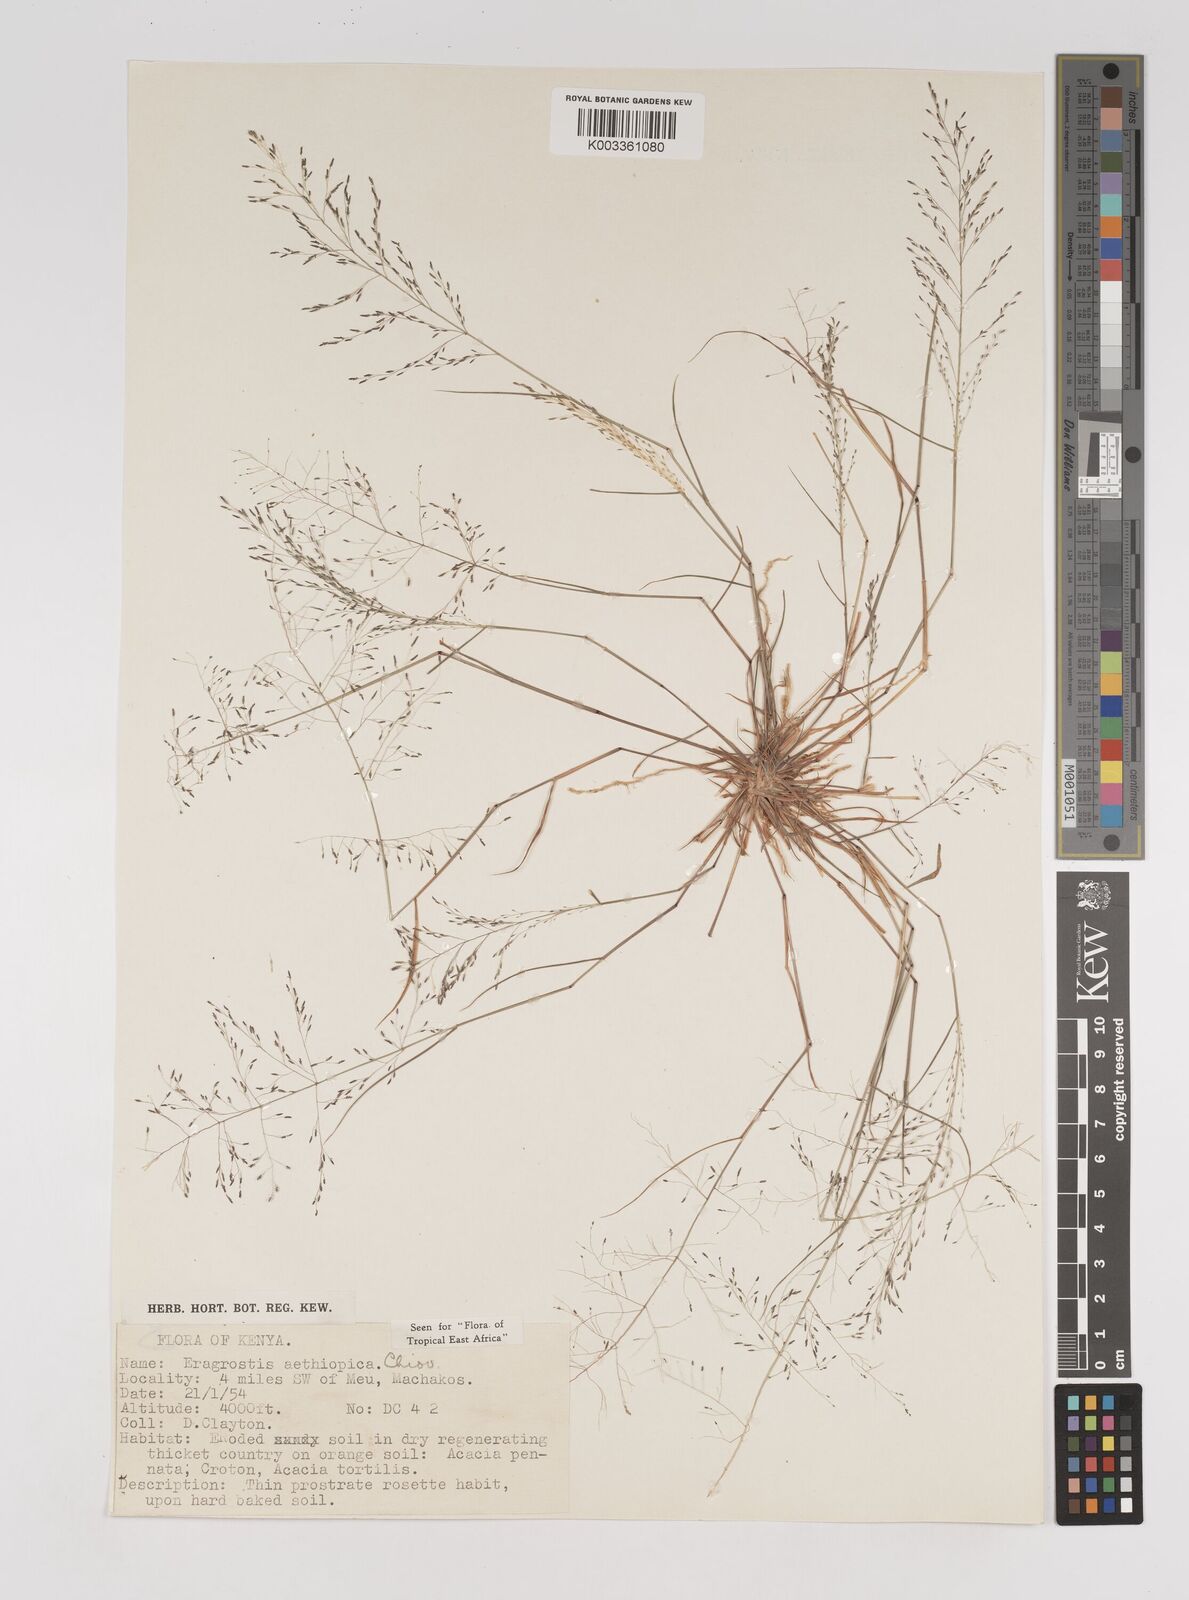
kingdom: Plantae
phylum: Tracheophyta
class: Liliopsida
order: Poales
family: Poaceae
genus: Eragrostis
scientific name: Eragrostis aethiopica
